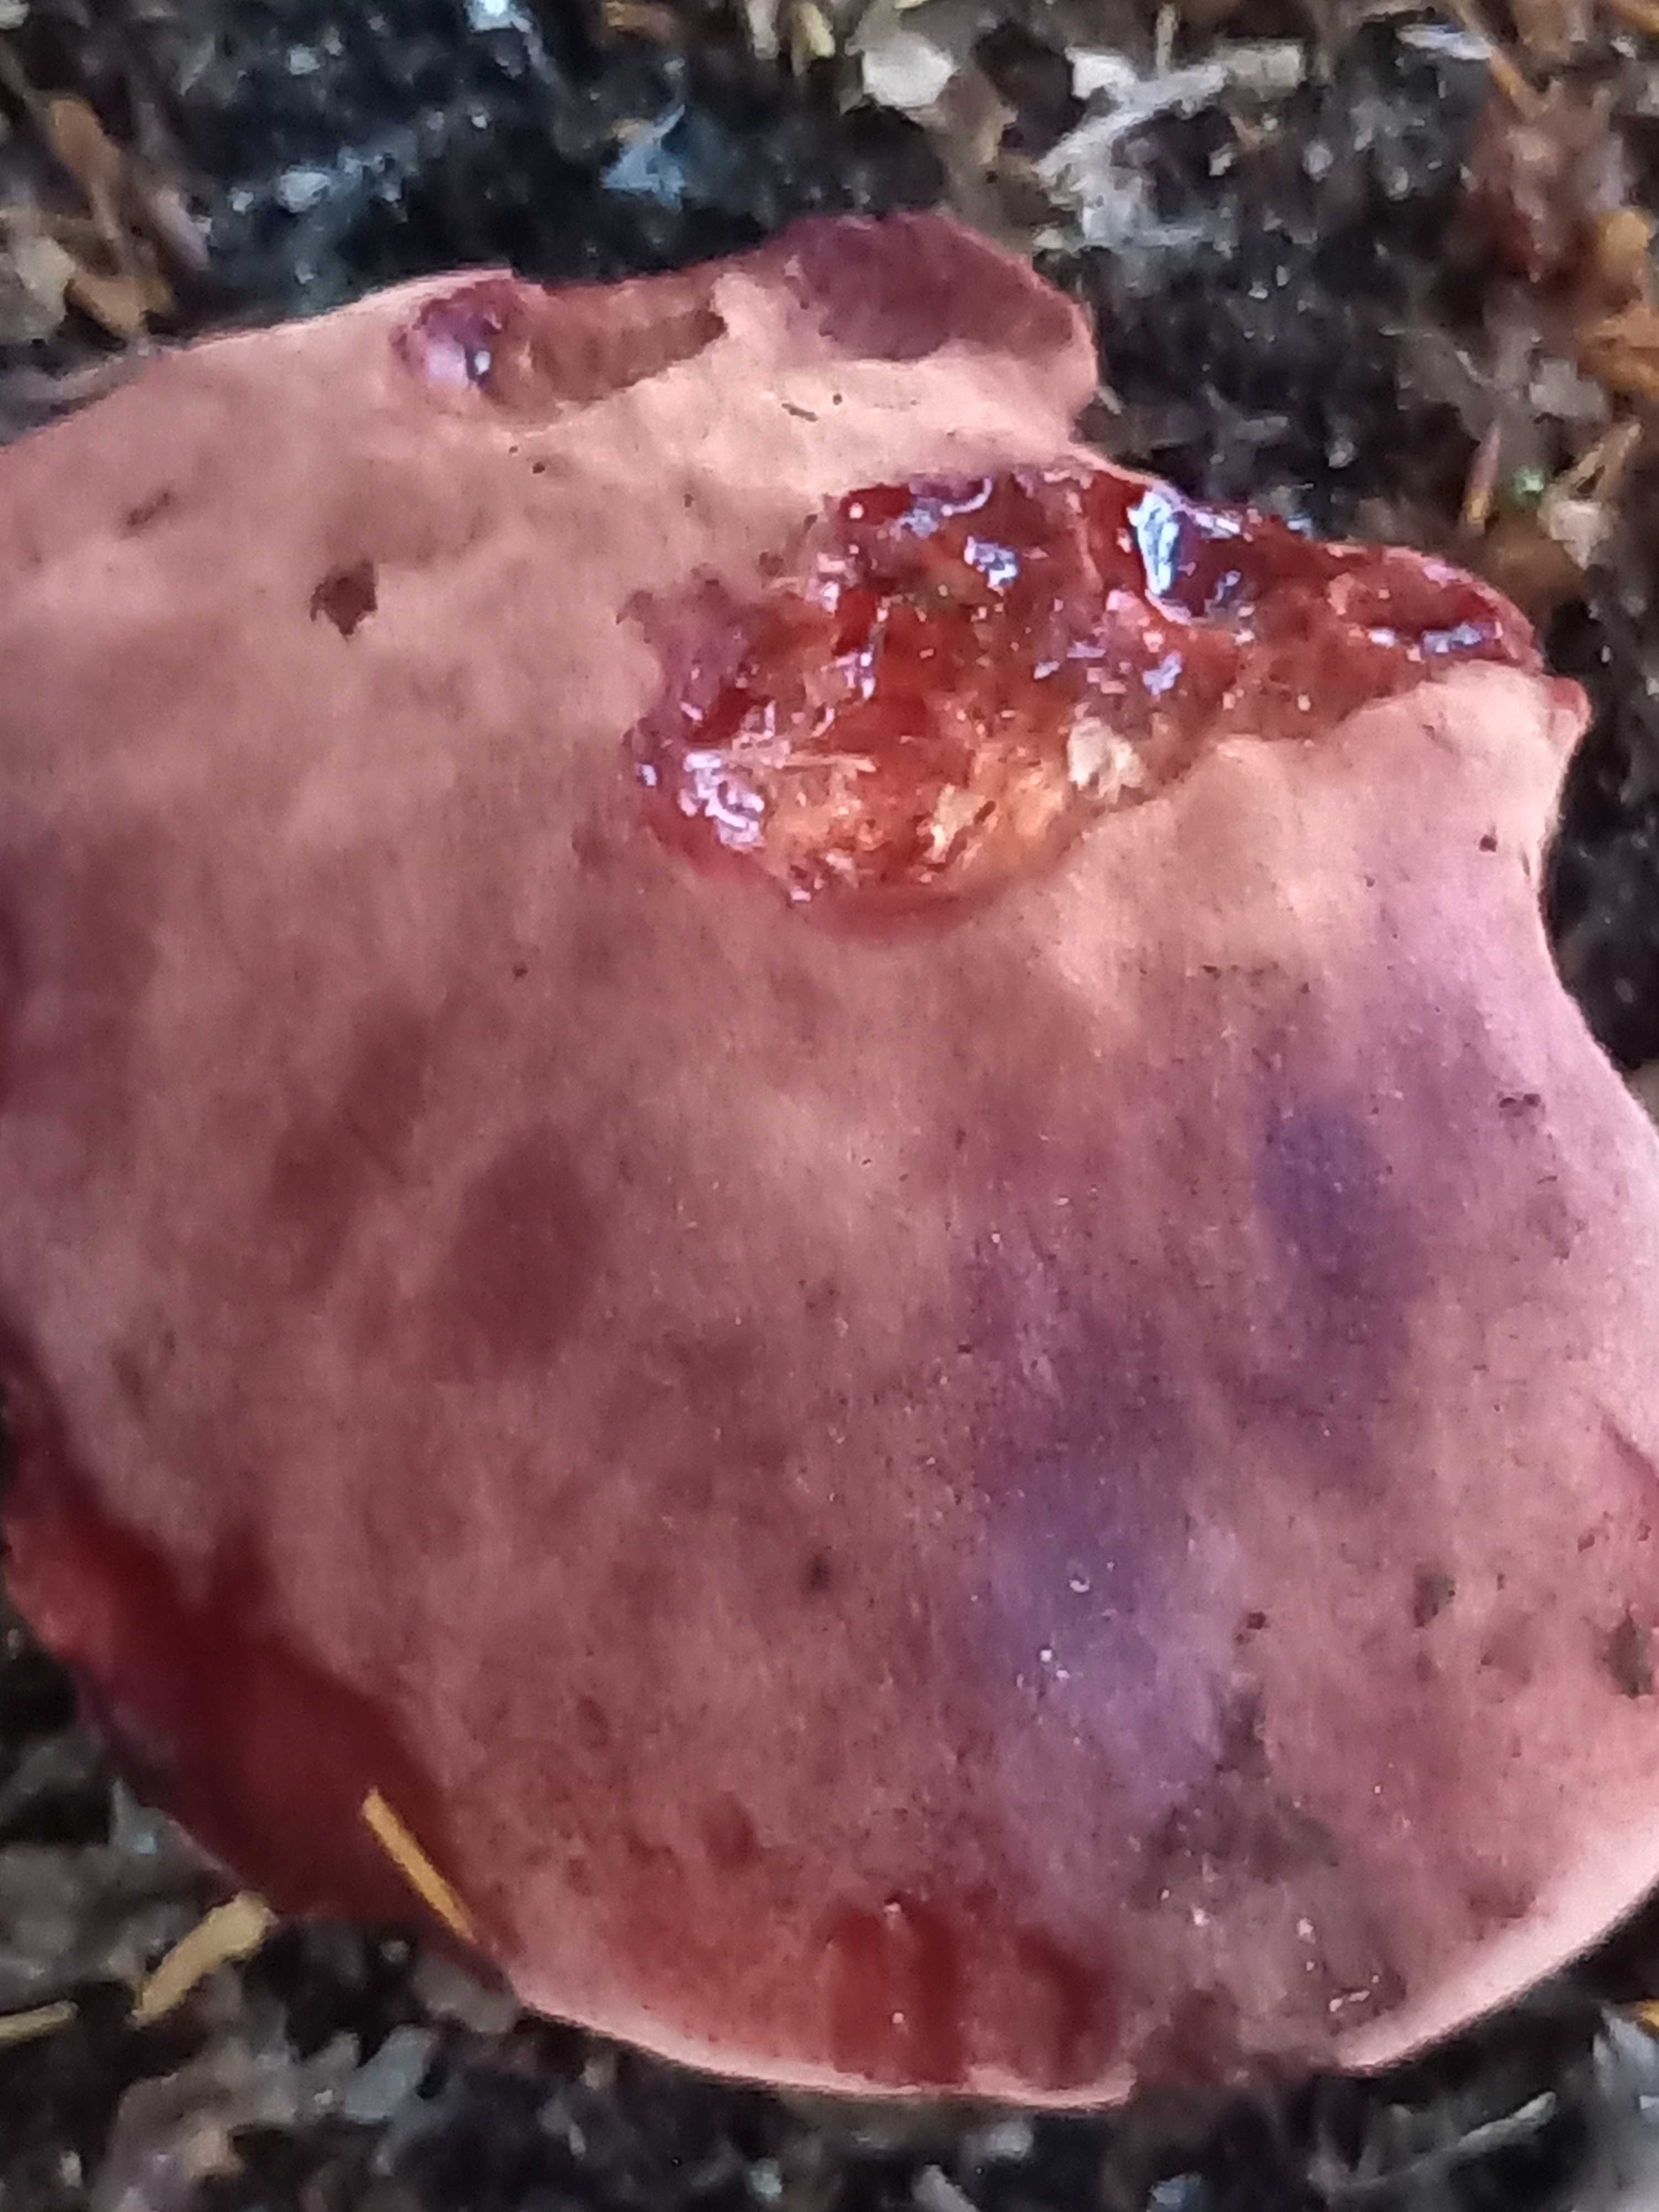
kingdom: Fungi
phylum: Basidiomycota
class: Agaricomycetes
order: Agaricales
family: Fistulinaceae
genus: Fistulina
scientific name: Fistulina hepatica
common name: oksetunge
